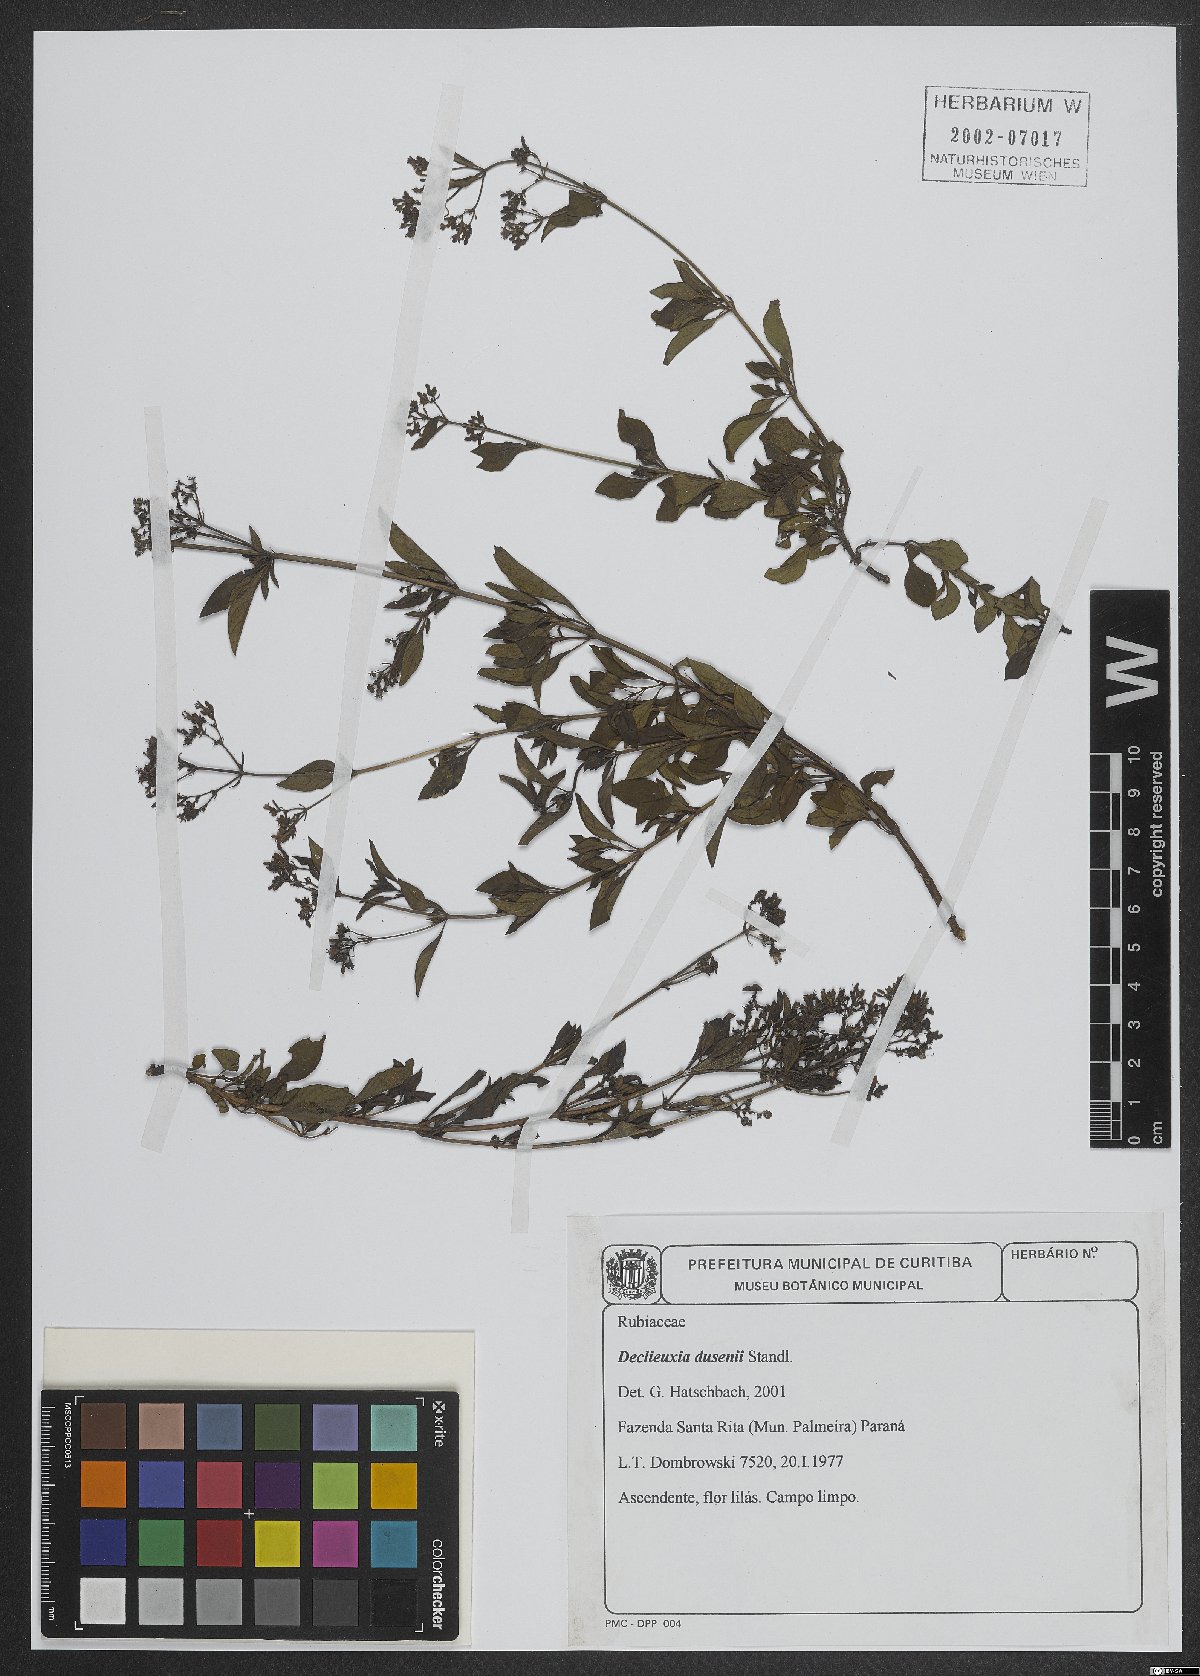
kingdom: Plantae
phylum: Tracheophyta
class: Magnoliopsida
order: Gentianales
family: Rubiaceae
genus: Declieuxia
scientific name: Declieuxia dusenii
